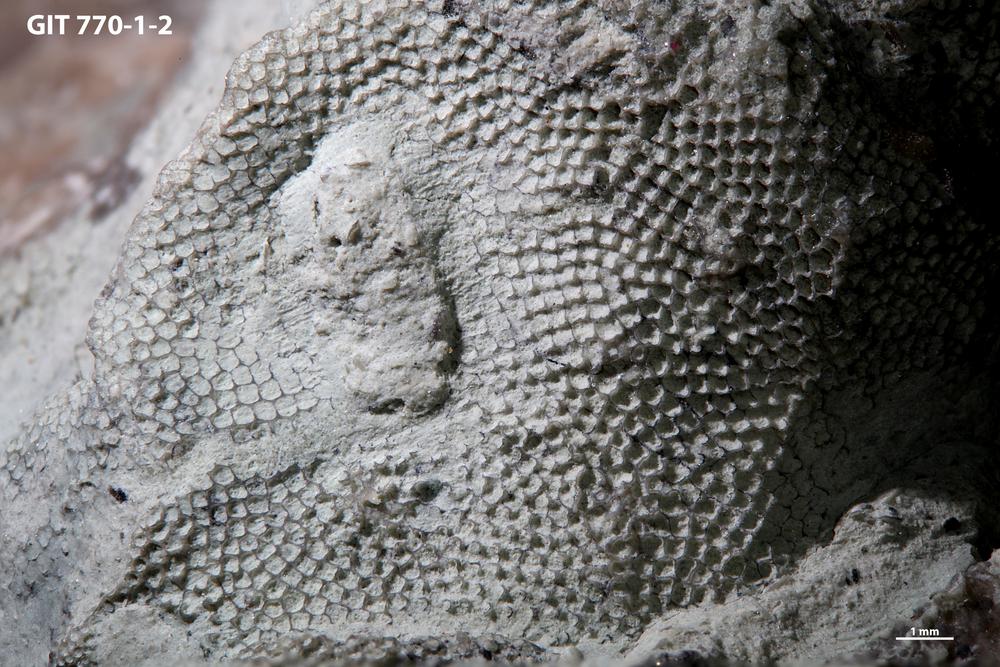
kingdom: Animalia
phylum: Bryozoa
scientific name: Bryozoa
